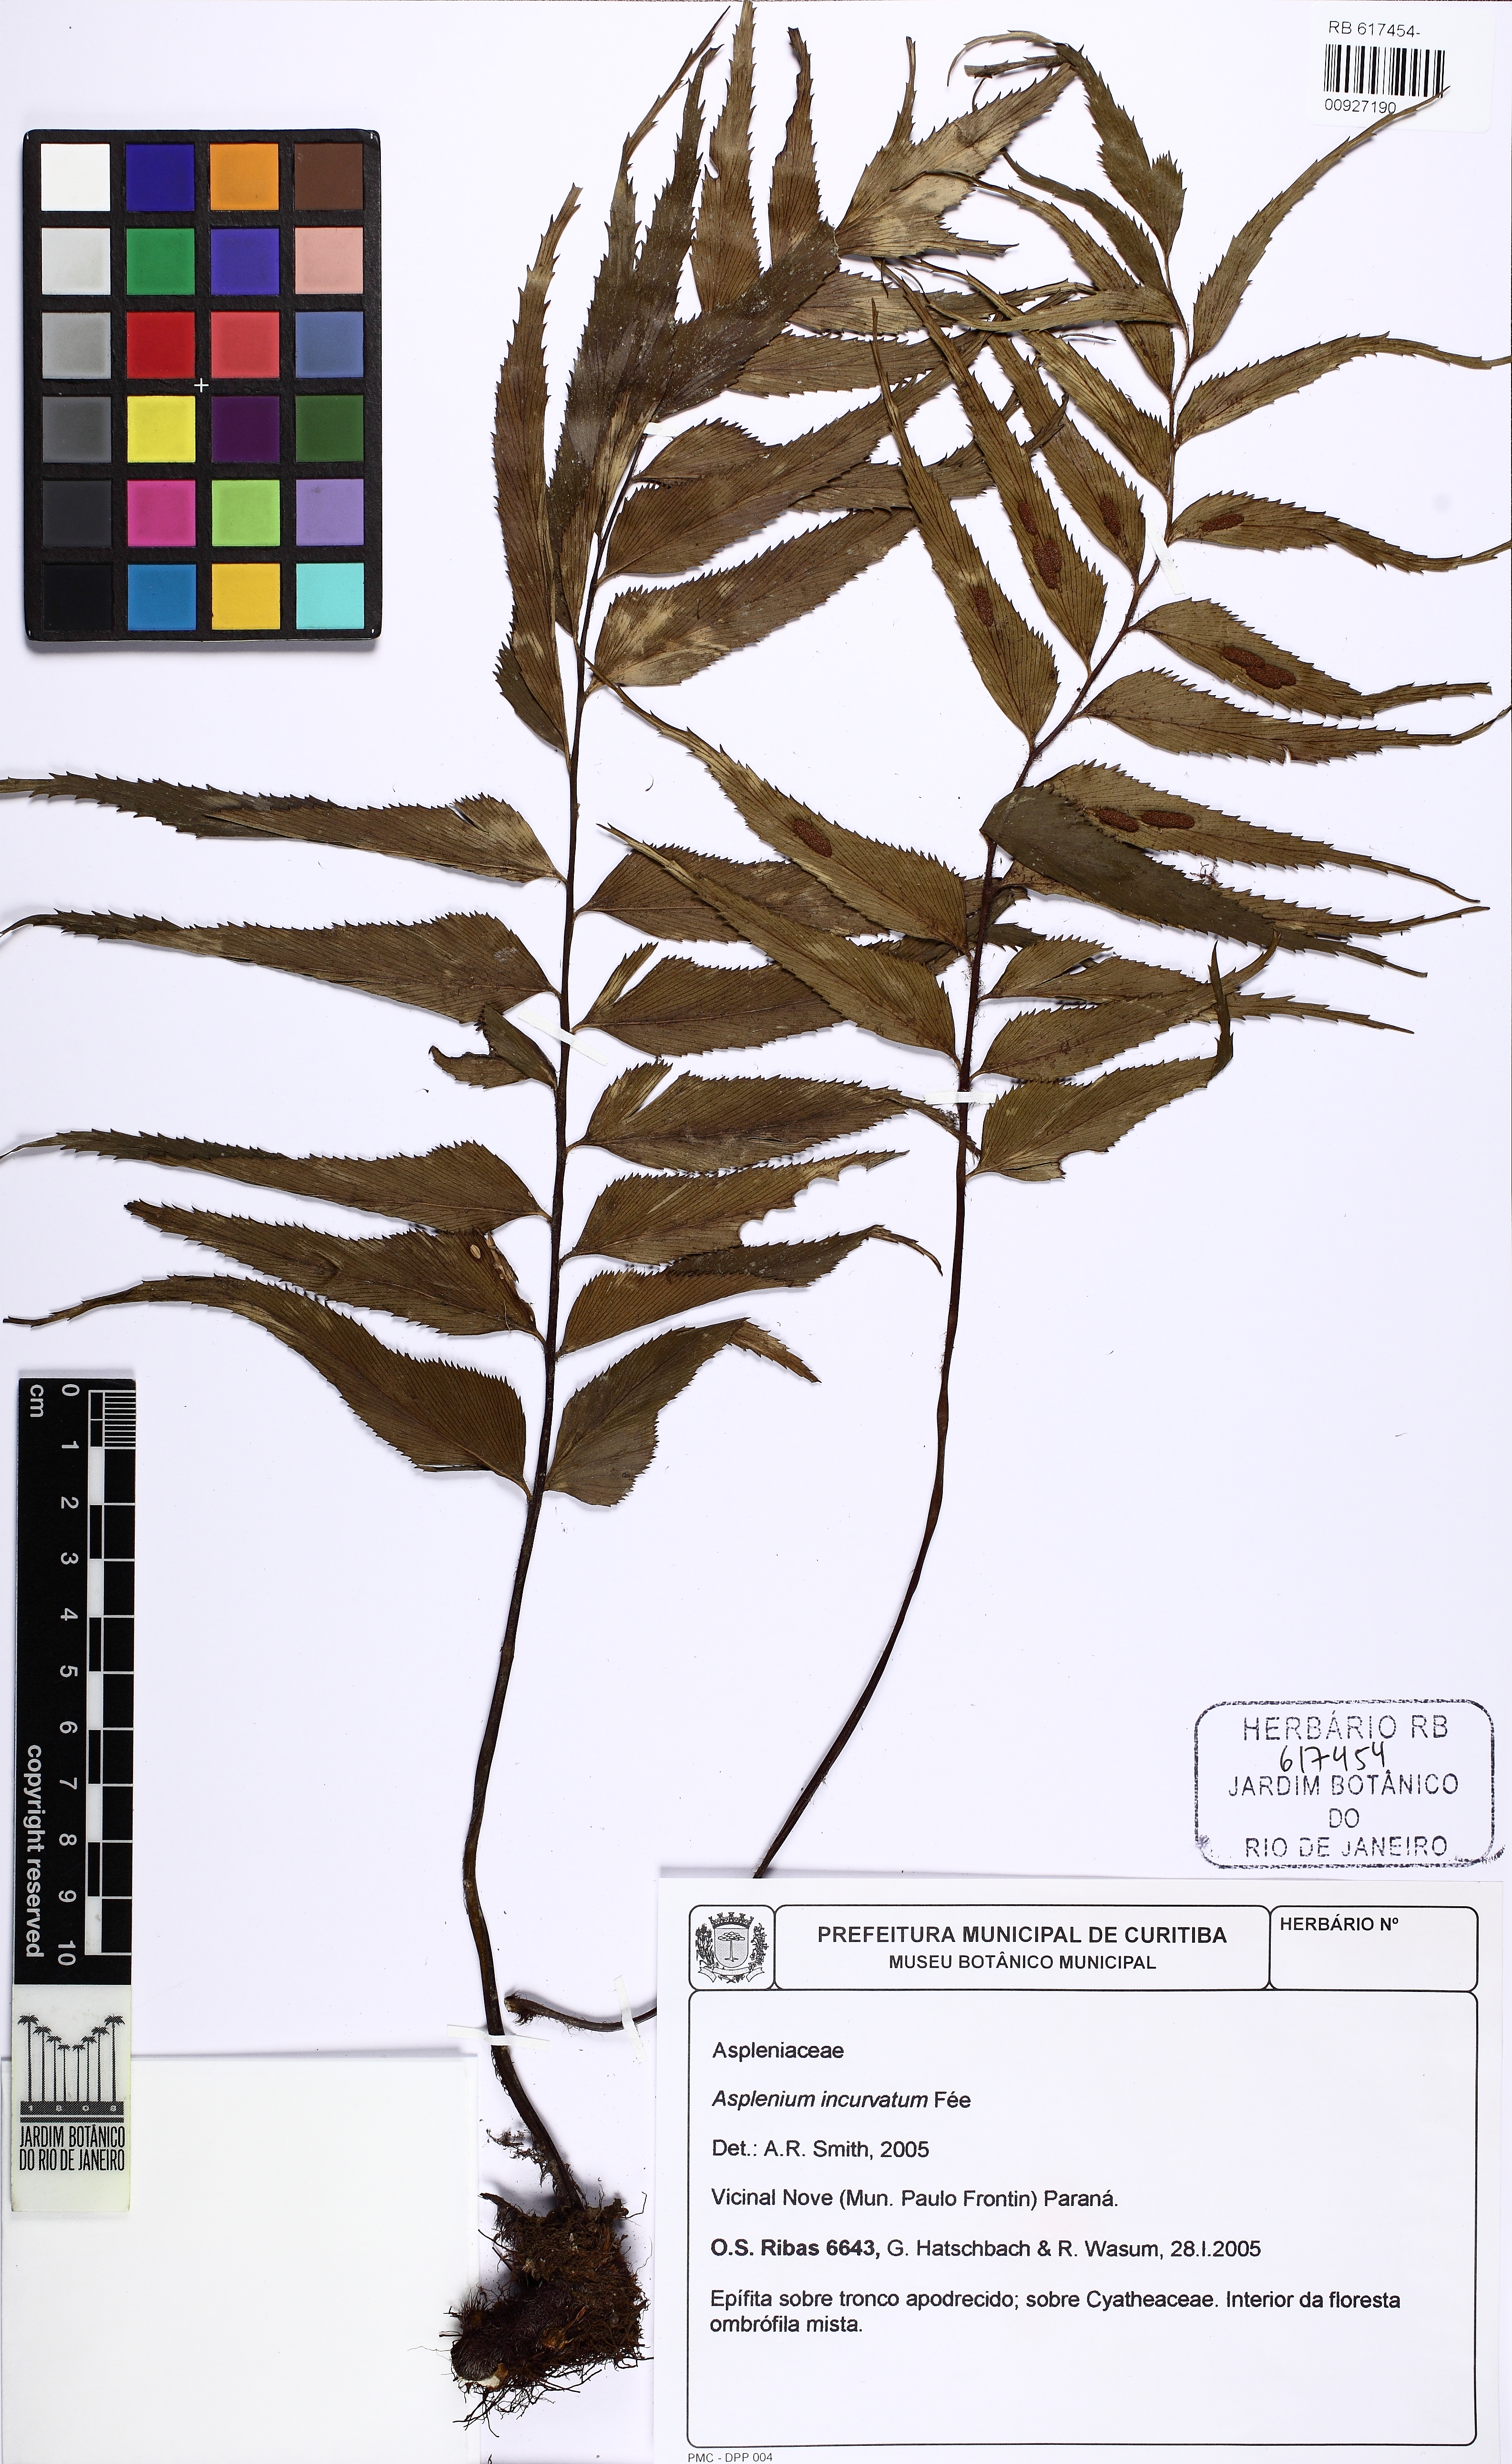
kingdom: Plantae
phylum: Tracheophyta
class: Polypodiopsida
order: Polypodiales
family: Aspleniaceae
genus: Asplenium
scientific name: Asplenium serra
